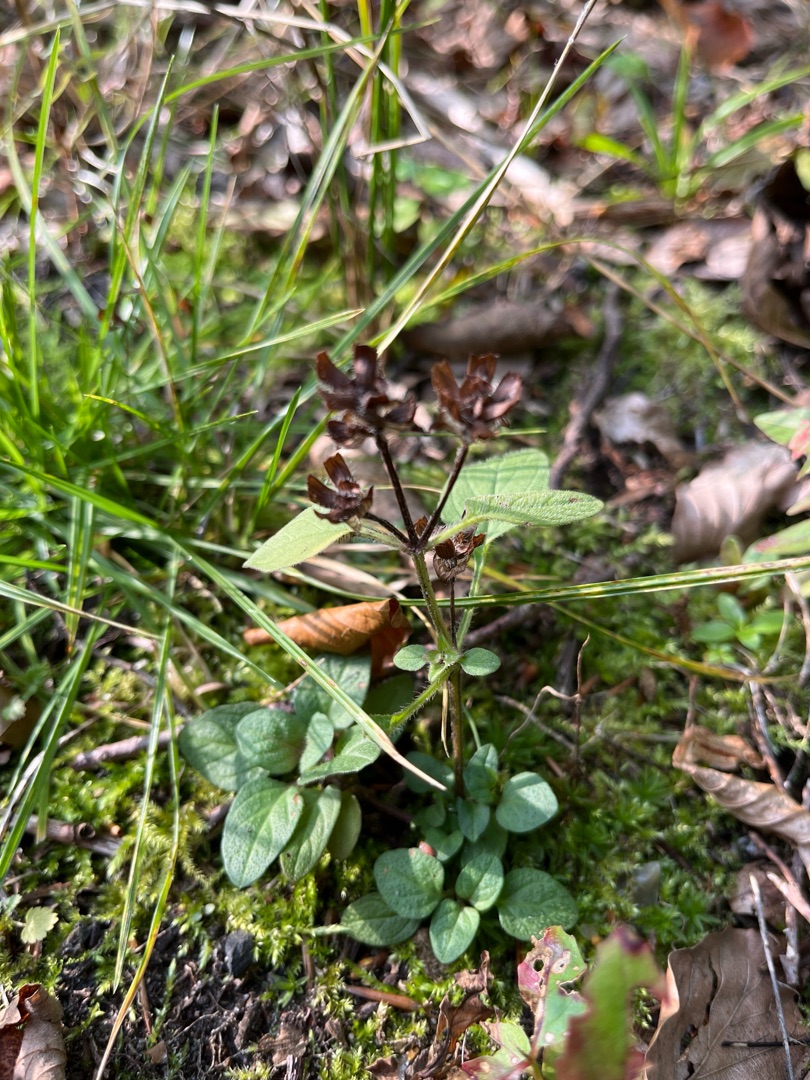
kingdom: Plantae
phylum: Tracheophyta
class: Magnoliopsida
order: Lamiales
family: Lamiaceae
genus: Prunella
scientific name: Prunella vulgaris
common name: Almindelig brunelle
